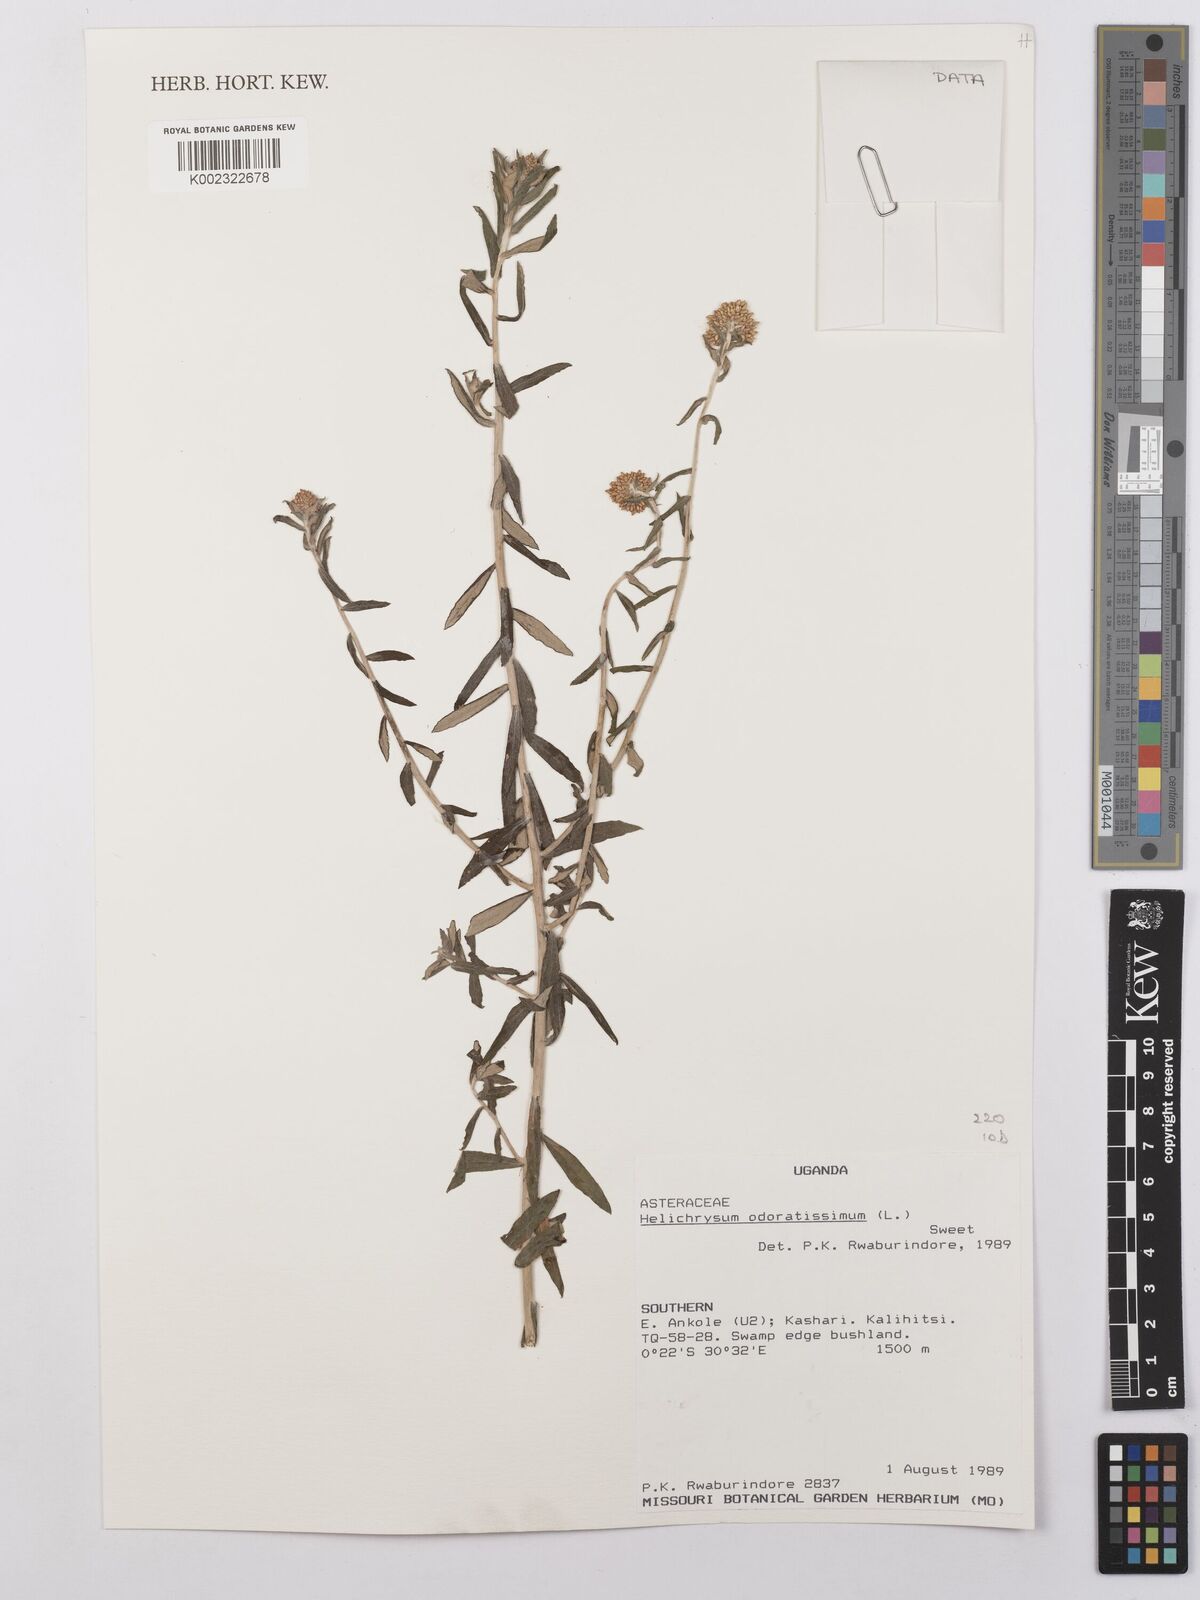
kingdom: Plantae
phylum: Tracheophyta
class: Magnoliopsida
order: Asterales
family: Asteraceae
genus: Helichrysum
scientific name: Helichrysum odoratissimum
